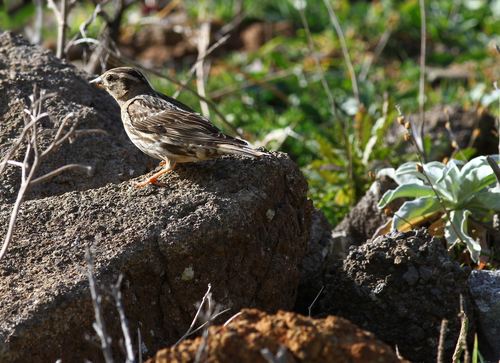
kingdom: Animalia
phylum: Chordata
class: Aves
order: Passeriformes
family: Passeridae
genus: Petronia
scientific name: Petronia petronia
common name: Rock sparrow
